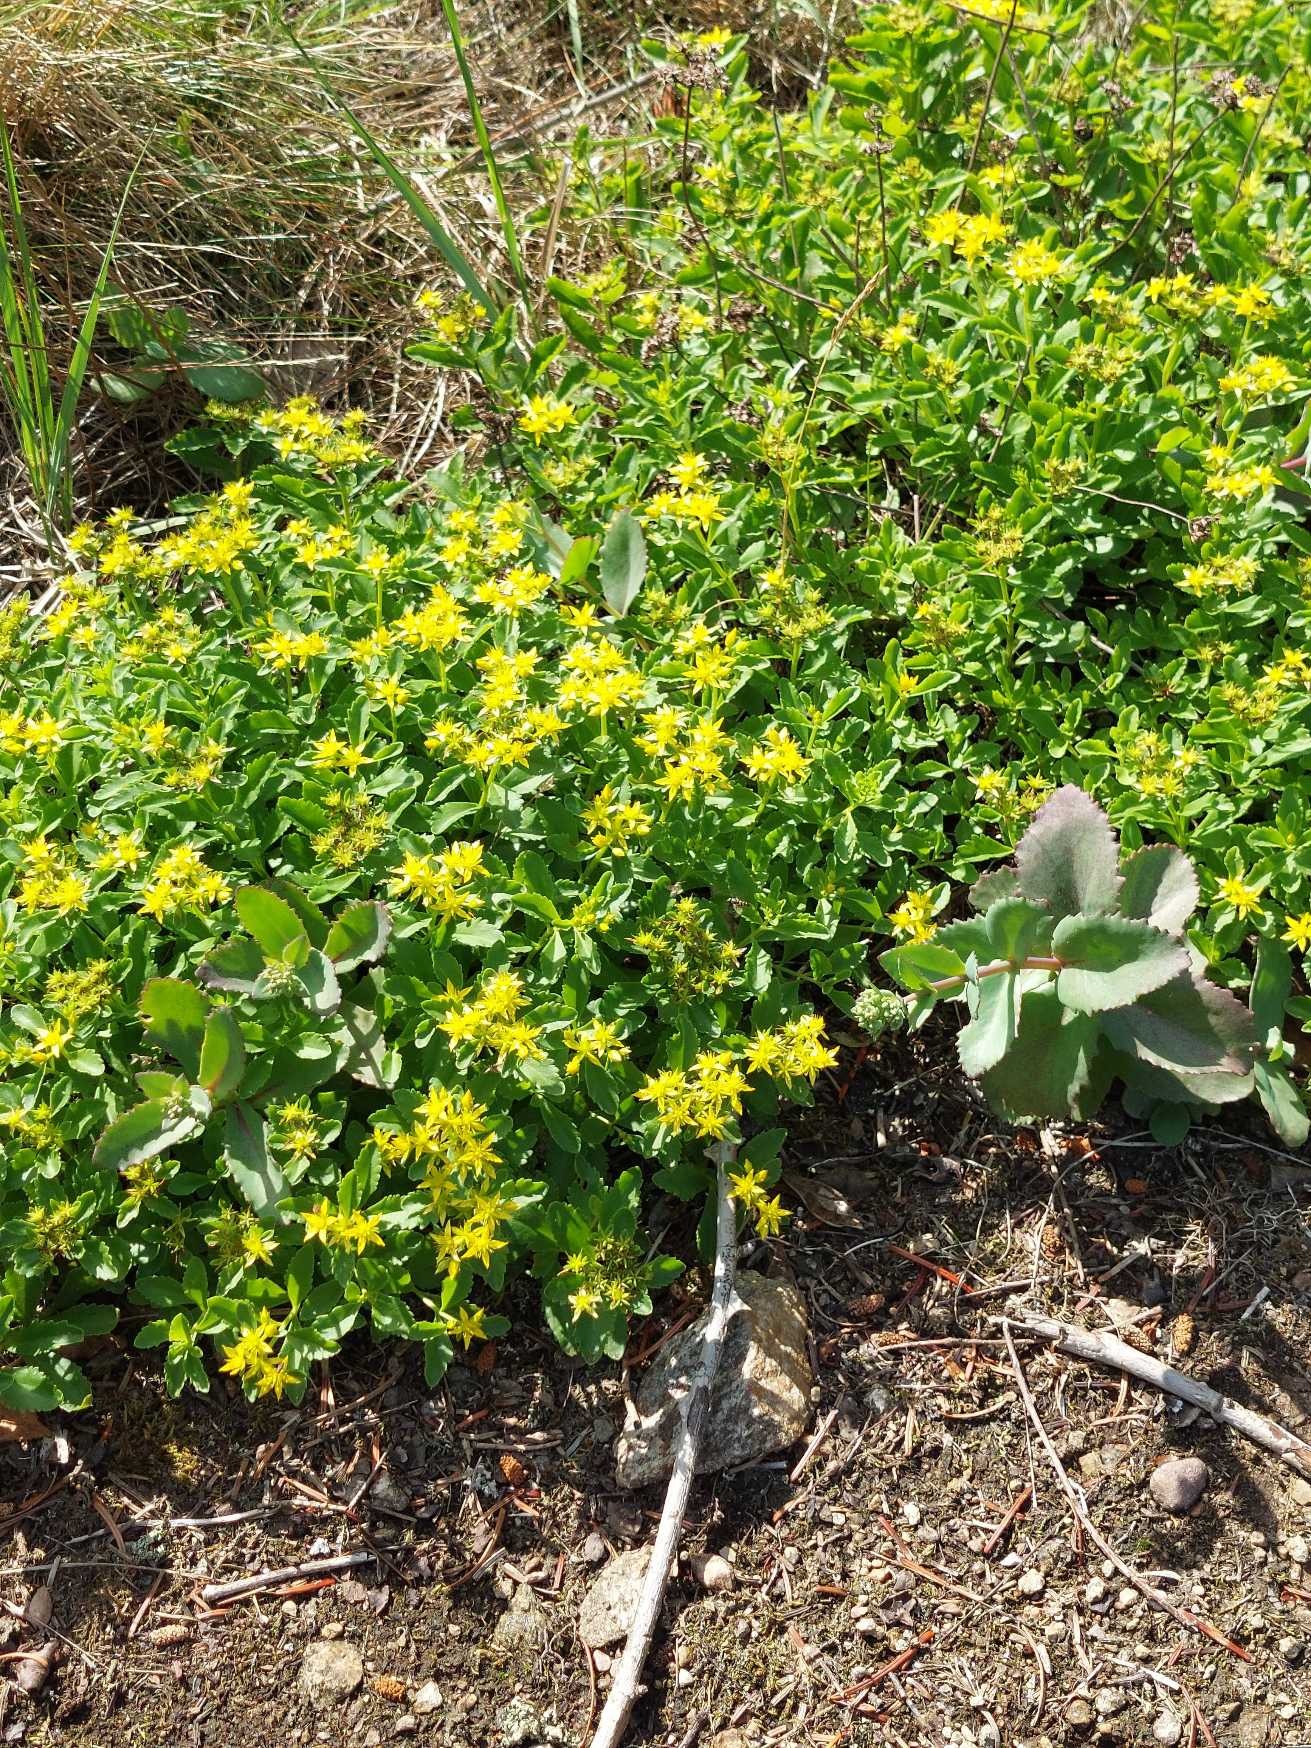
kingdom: Plantae
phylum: Tracheophyta
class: Magnoliopsida
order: Saxifragales
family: Crassulaceae
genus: Phedimus
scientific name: Phedimus aizoon
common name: Asiatisk stenurt
